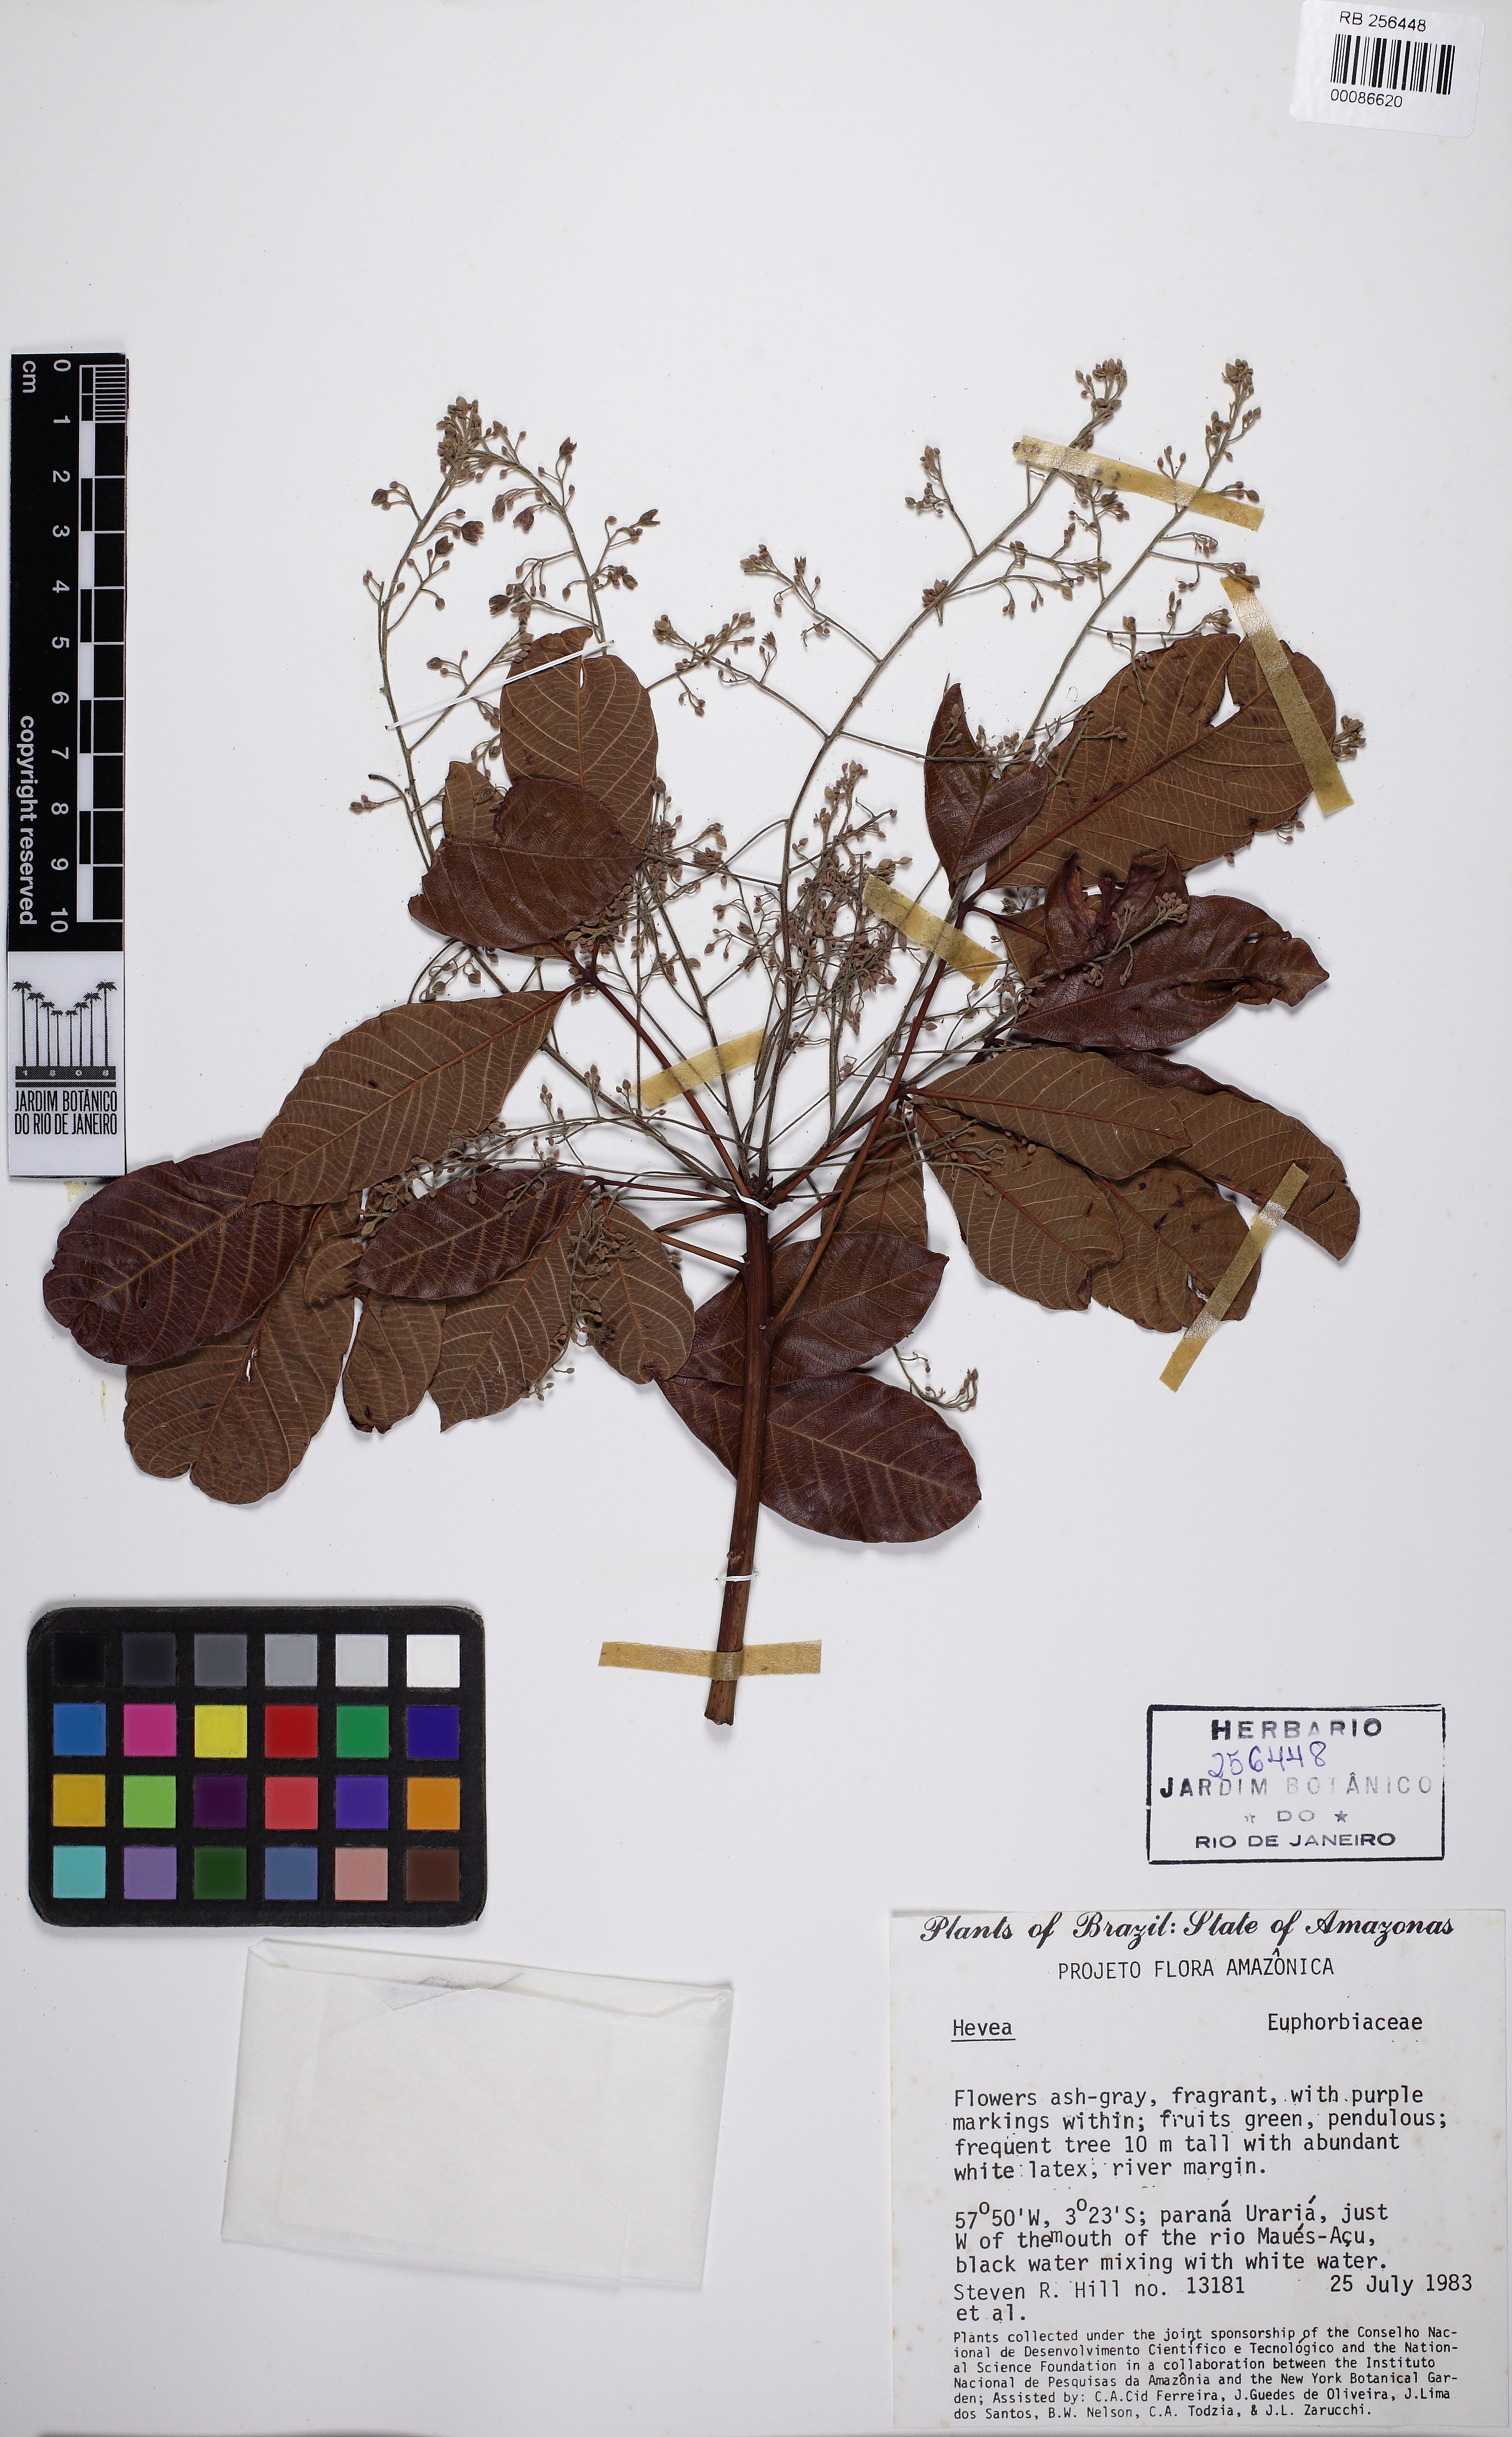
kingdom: Plantae
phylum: Tracheophyta
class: Magnoliopsida
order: Malpighiales
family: Euphorbiaceae
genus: Hevea
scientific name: Hevea
